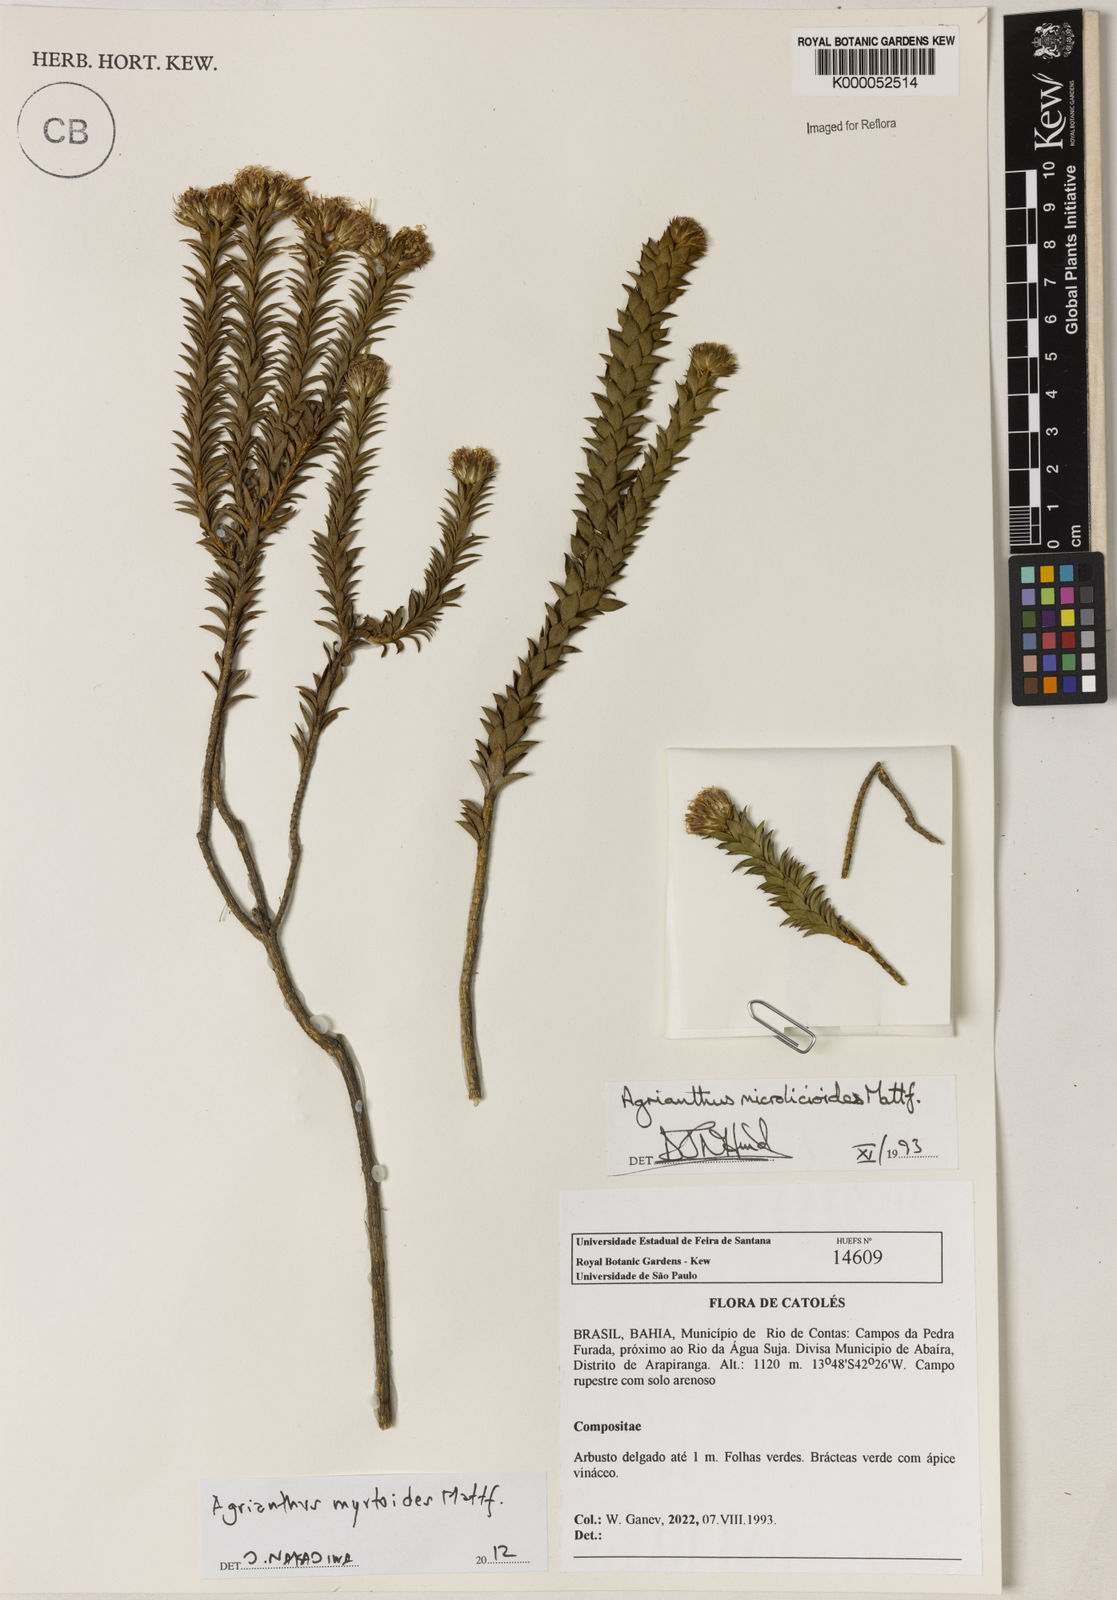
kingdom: Plantae
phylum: Tracheophyta
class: Magnoliopsida
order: Asterales
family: Asteraceae
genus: Agrianthus
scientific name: Agrianthus microlicioides
